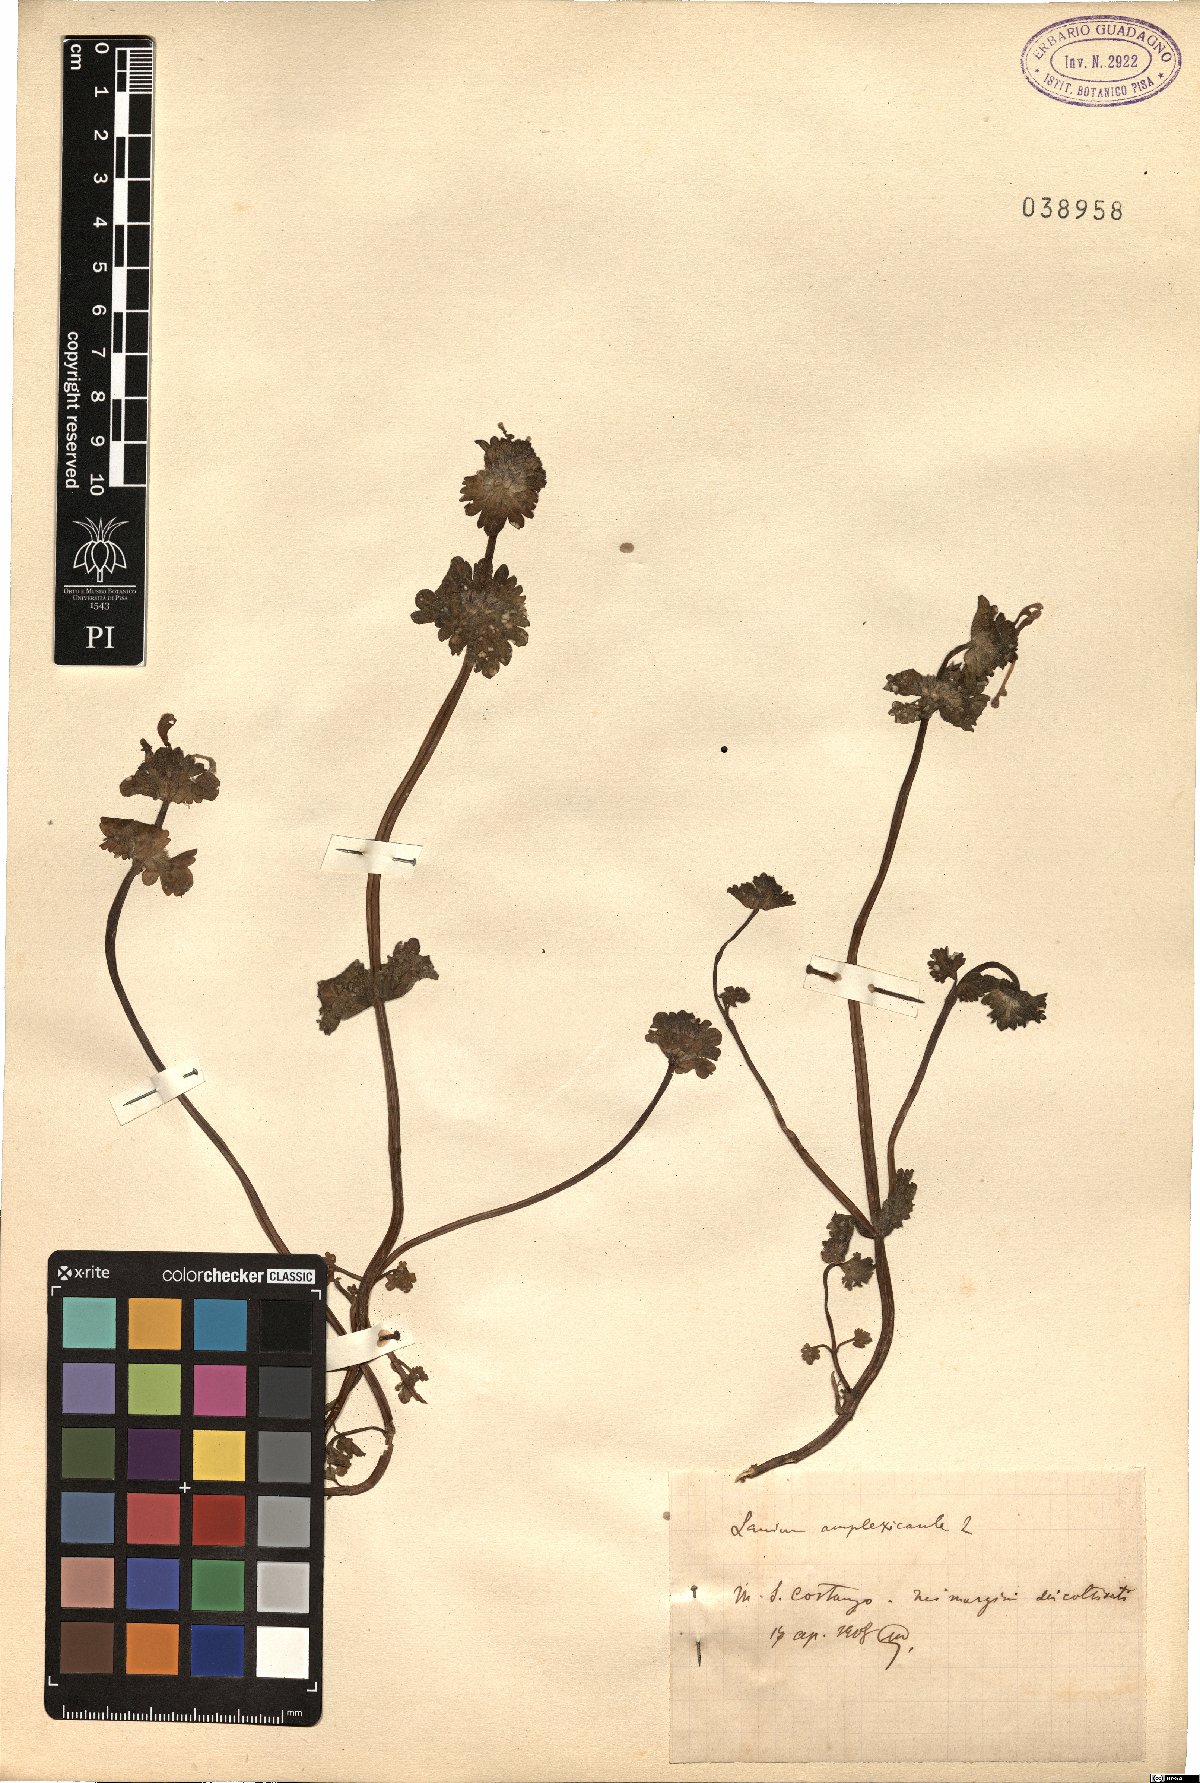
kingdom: Plantae
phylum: Tracheophyta
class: Magnoliopsida
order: Lamiales
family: Lamiaceae
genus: Lamium
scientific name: Lamium amplexicaule
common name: Henbit dead-nettle
